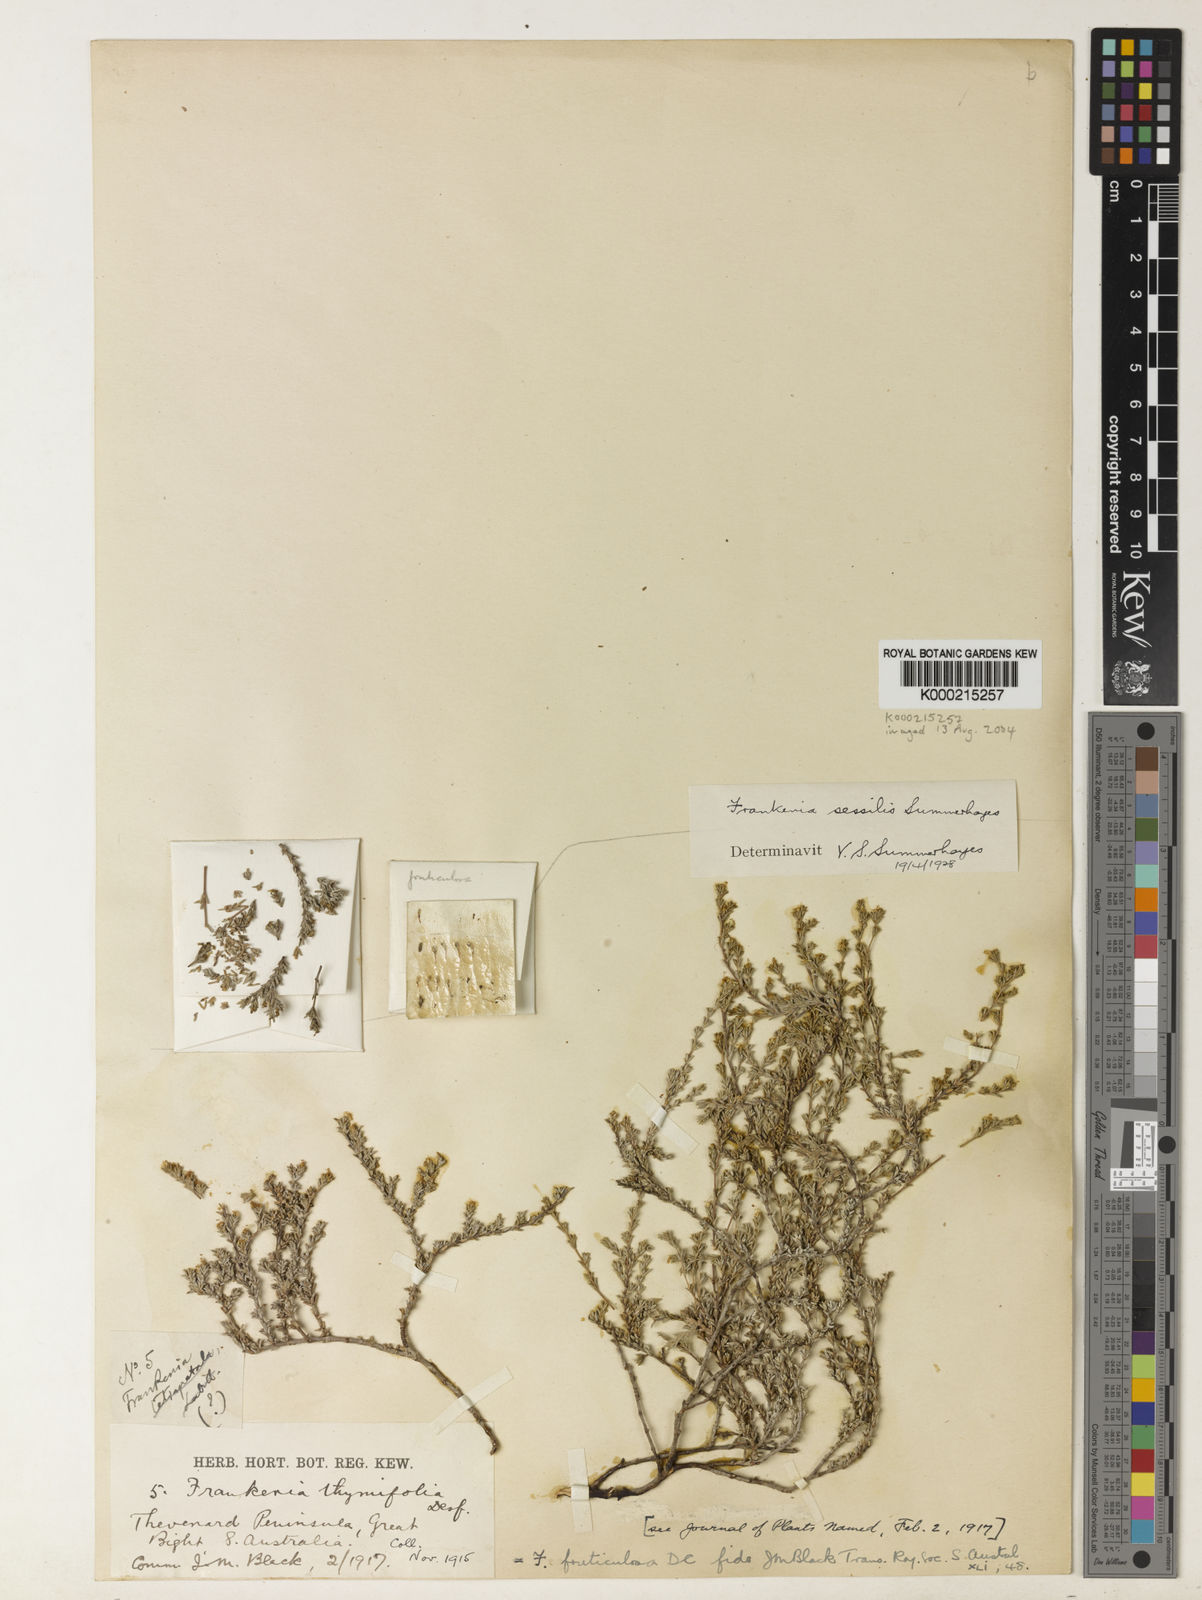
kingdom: Plantae
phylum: Tracheophyta
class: Magnoliopsida
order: Caryophyllales
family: Frankeniaceae
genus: Frankenia
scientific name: Frankenia sessilis
